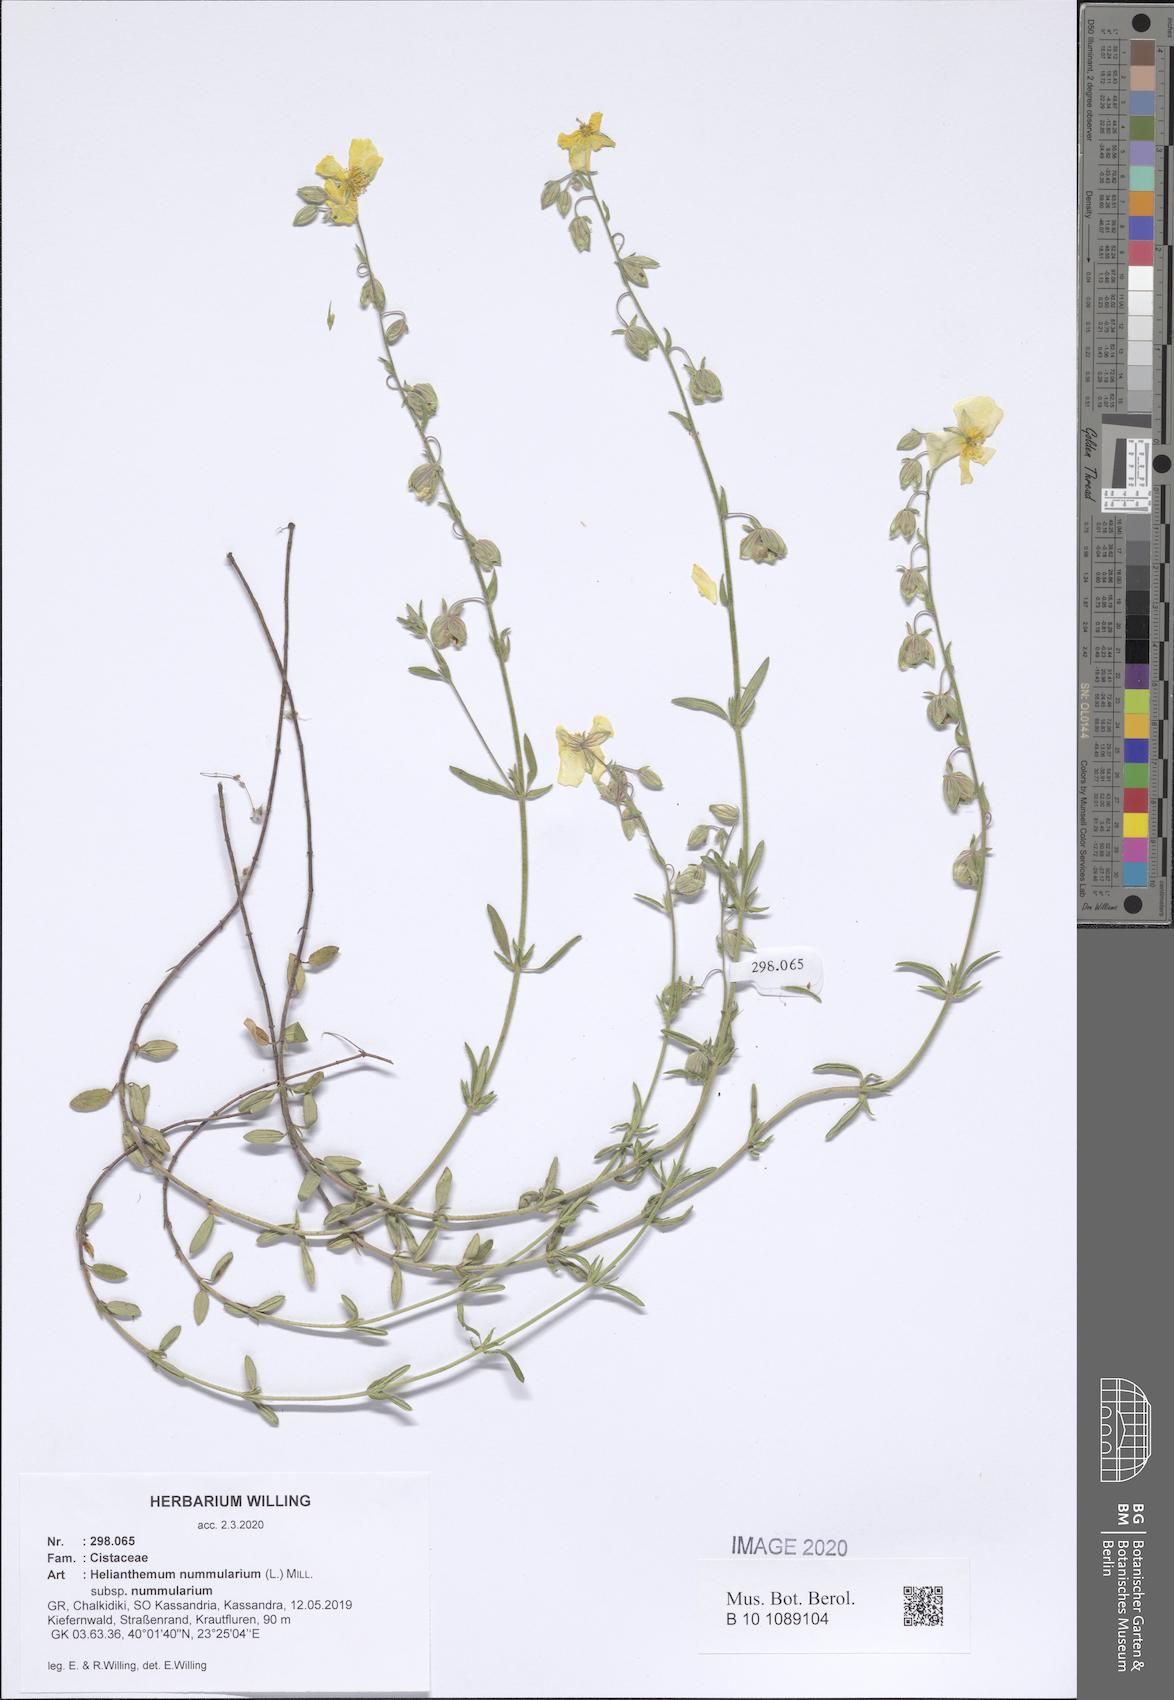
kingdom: Plantae
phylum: Tracheophyta
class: Magnoliopsida
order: Malvales
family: Cistaceae
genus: Helianthemum
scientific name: Helianthemum nummularium
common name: Common rock-rose
